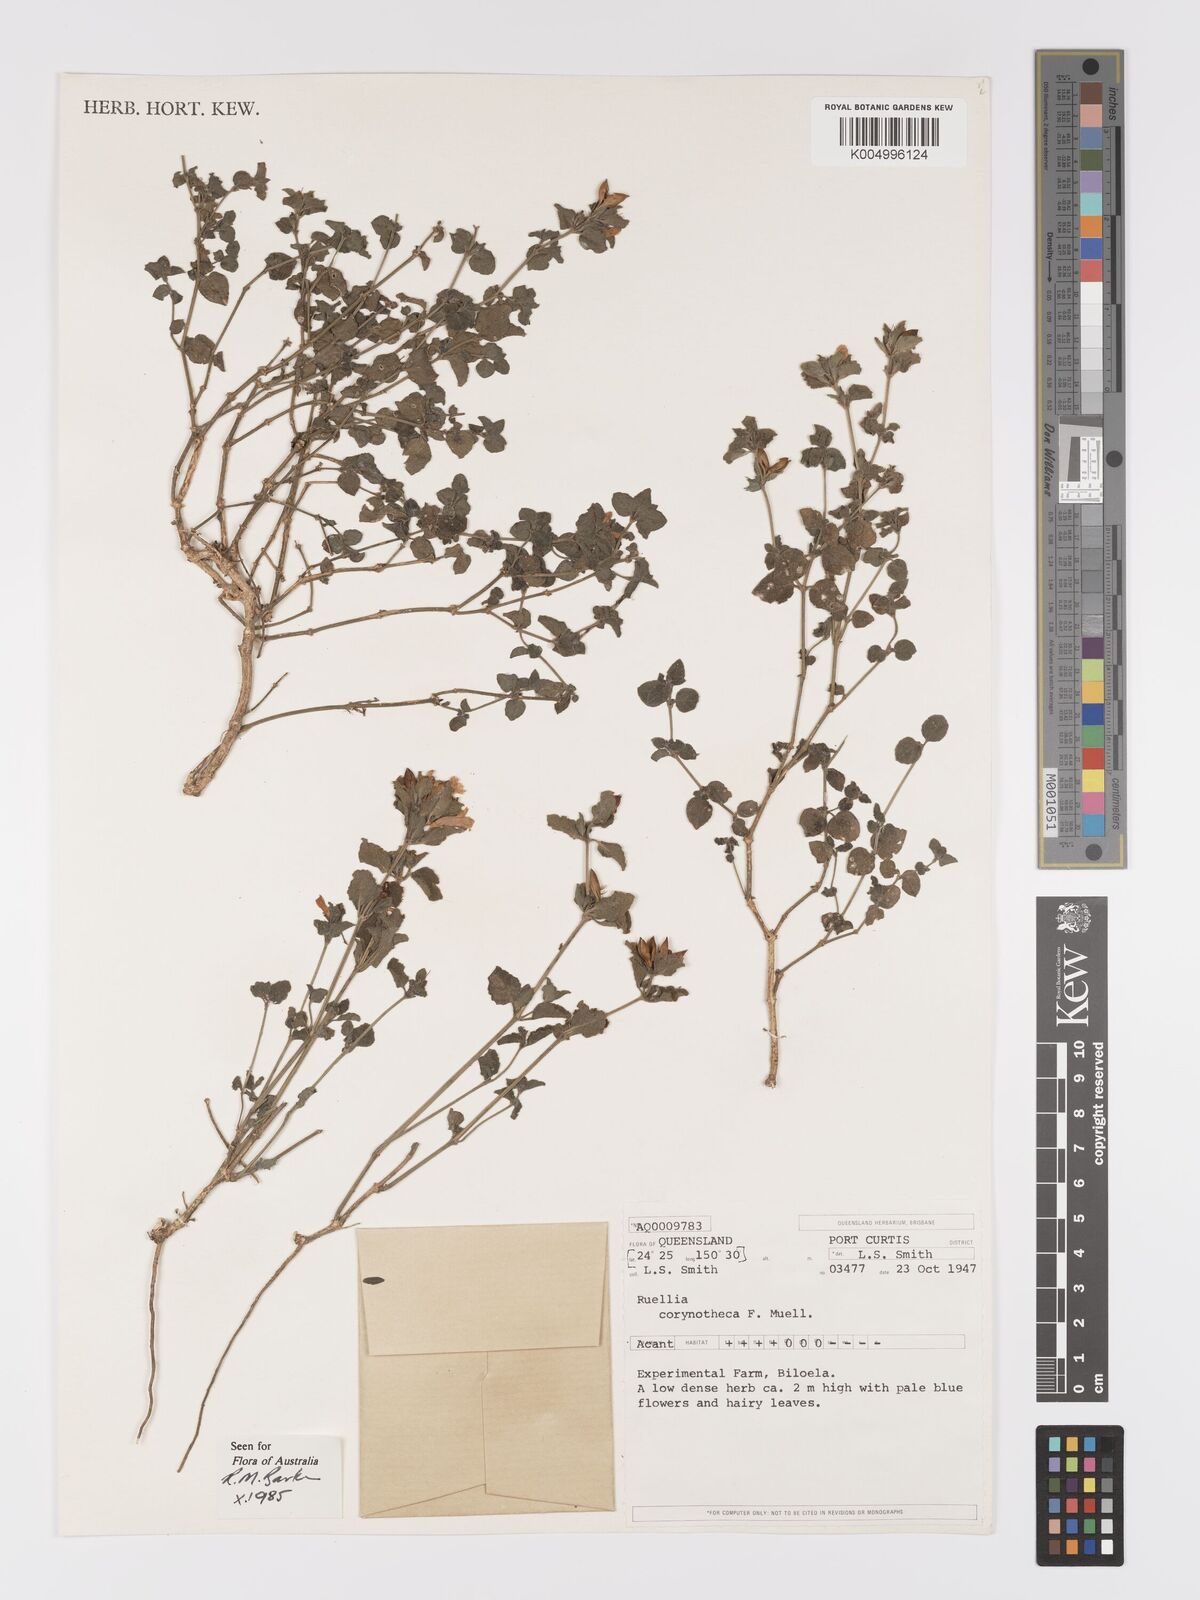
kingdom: Plantae
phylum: Tracheophyta
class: Magnoliopsida
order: Lamiales
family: Acanthaceae
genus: Ruellia
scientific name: Ruellia corynotheca
